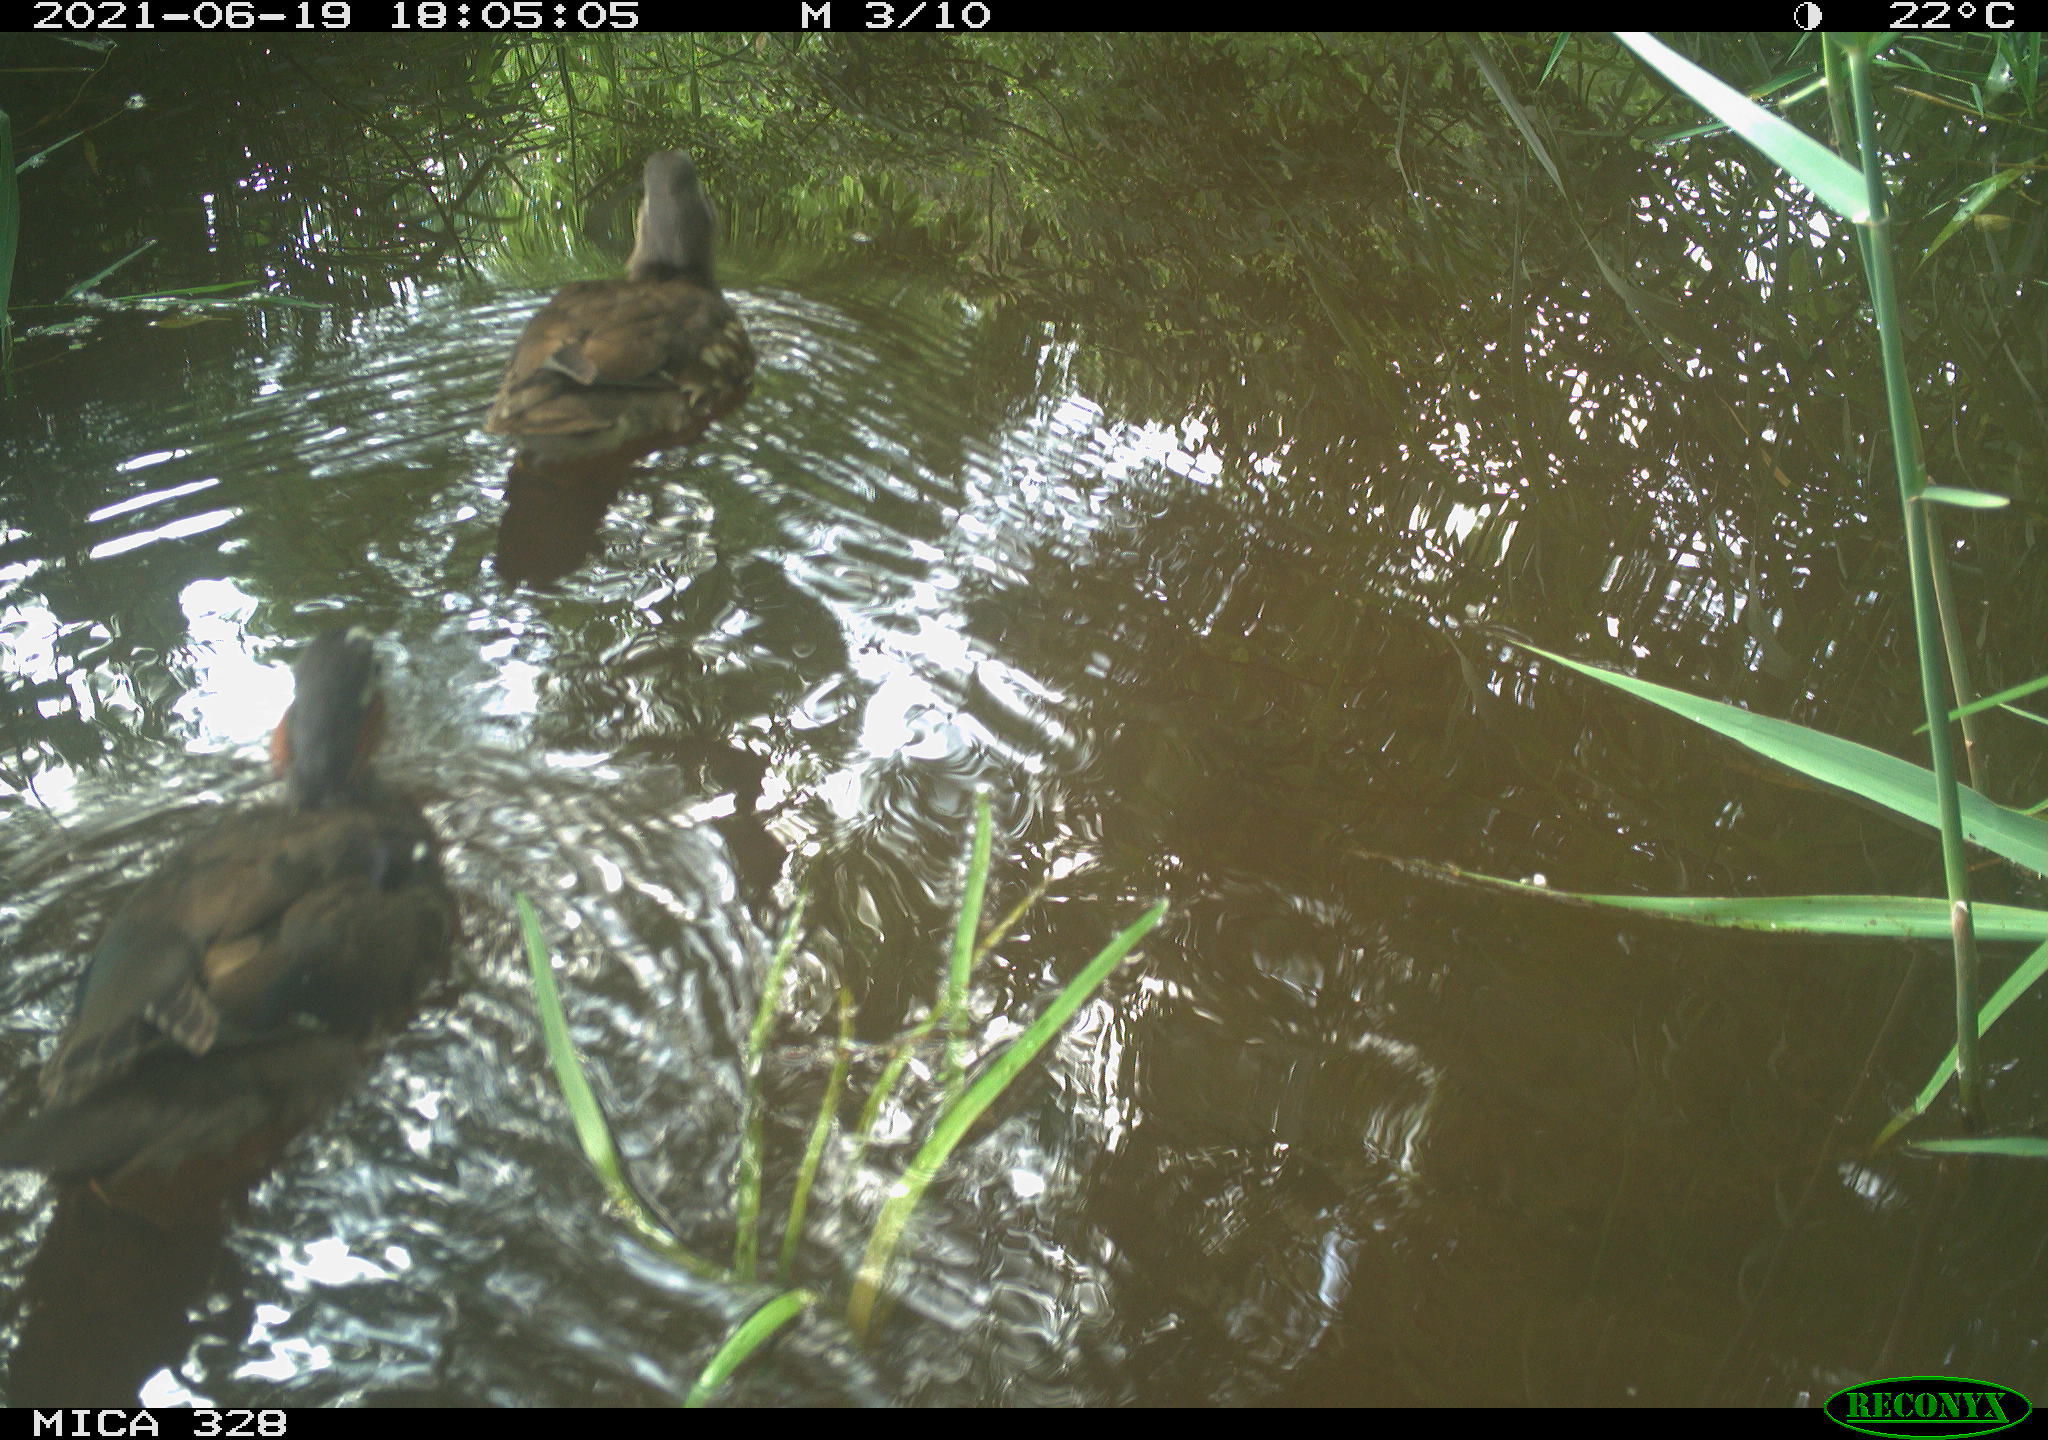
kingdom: Animalia
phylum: Chordata
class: Aves
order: Anseriformes
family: Anatidae
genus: Aix
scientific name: Aix galericulata
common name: Mandarin duck
